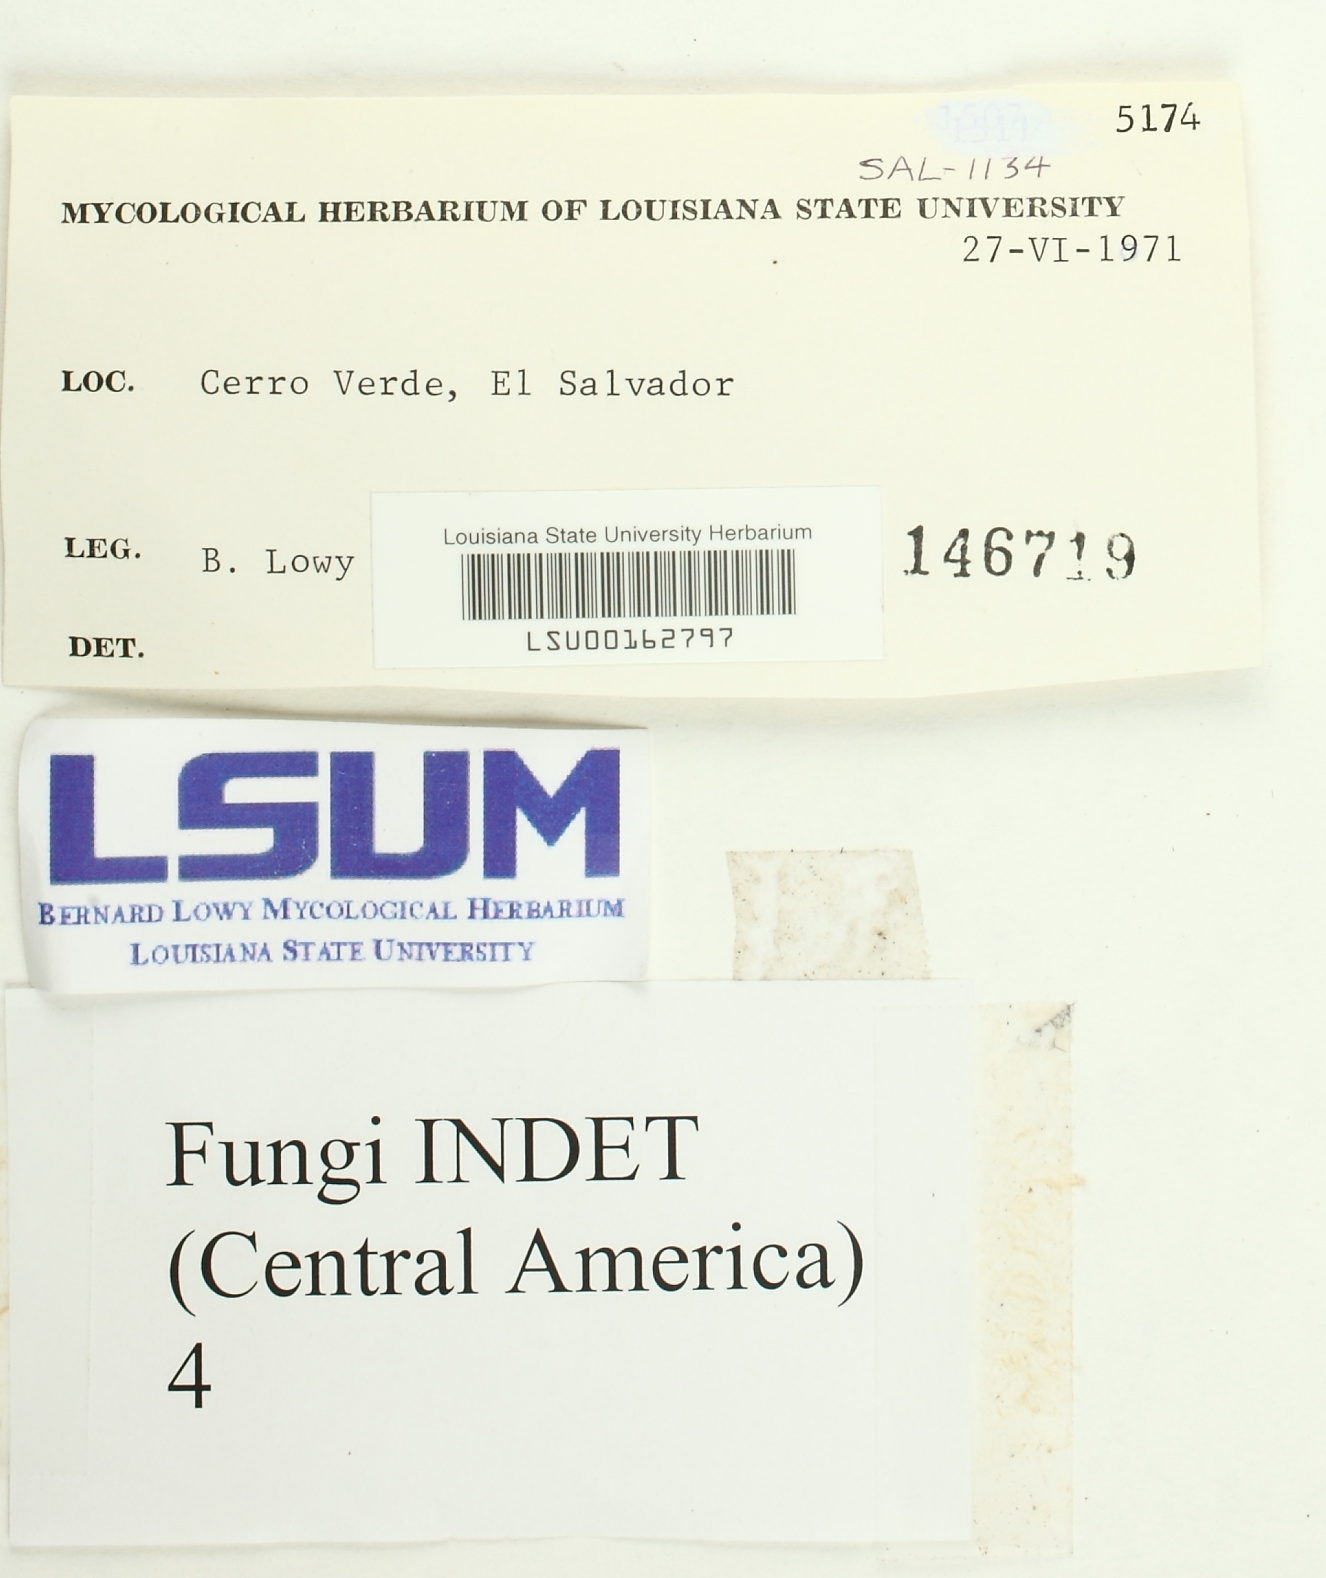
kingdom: Fungi
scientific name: Fungi
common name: Fungi
